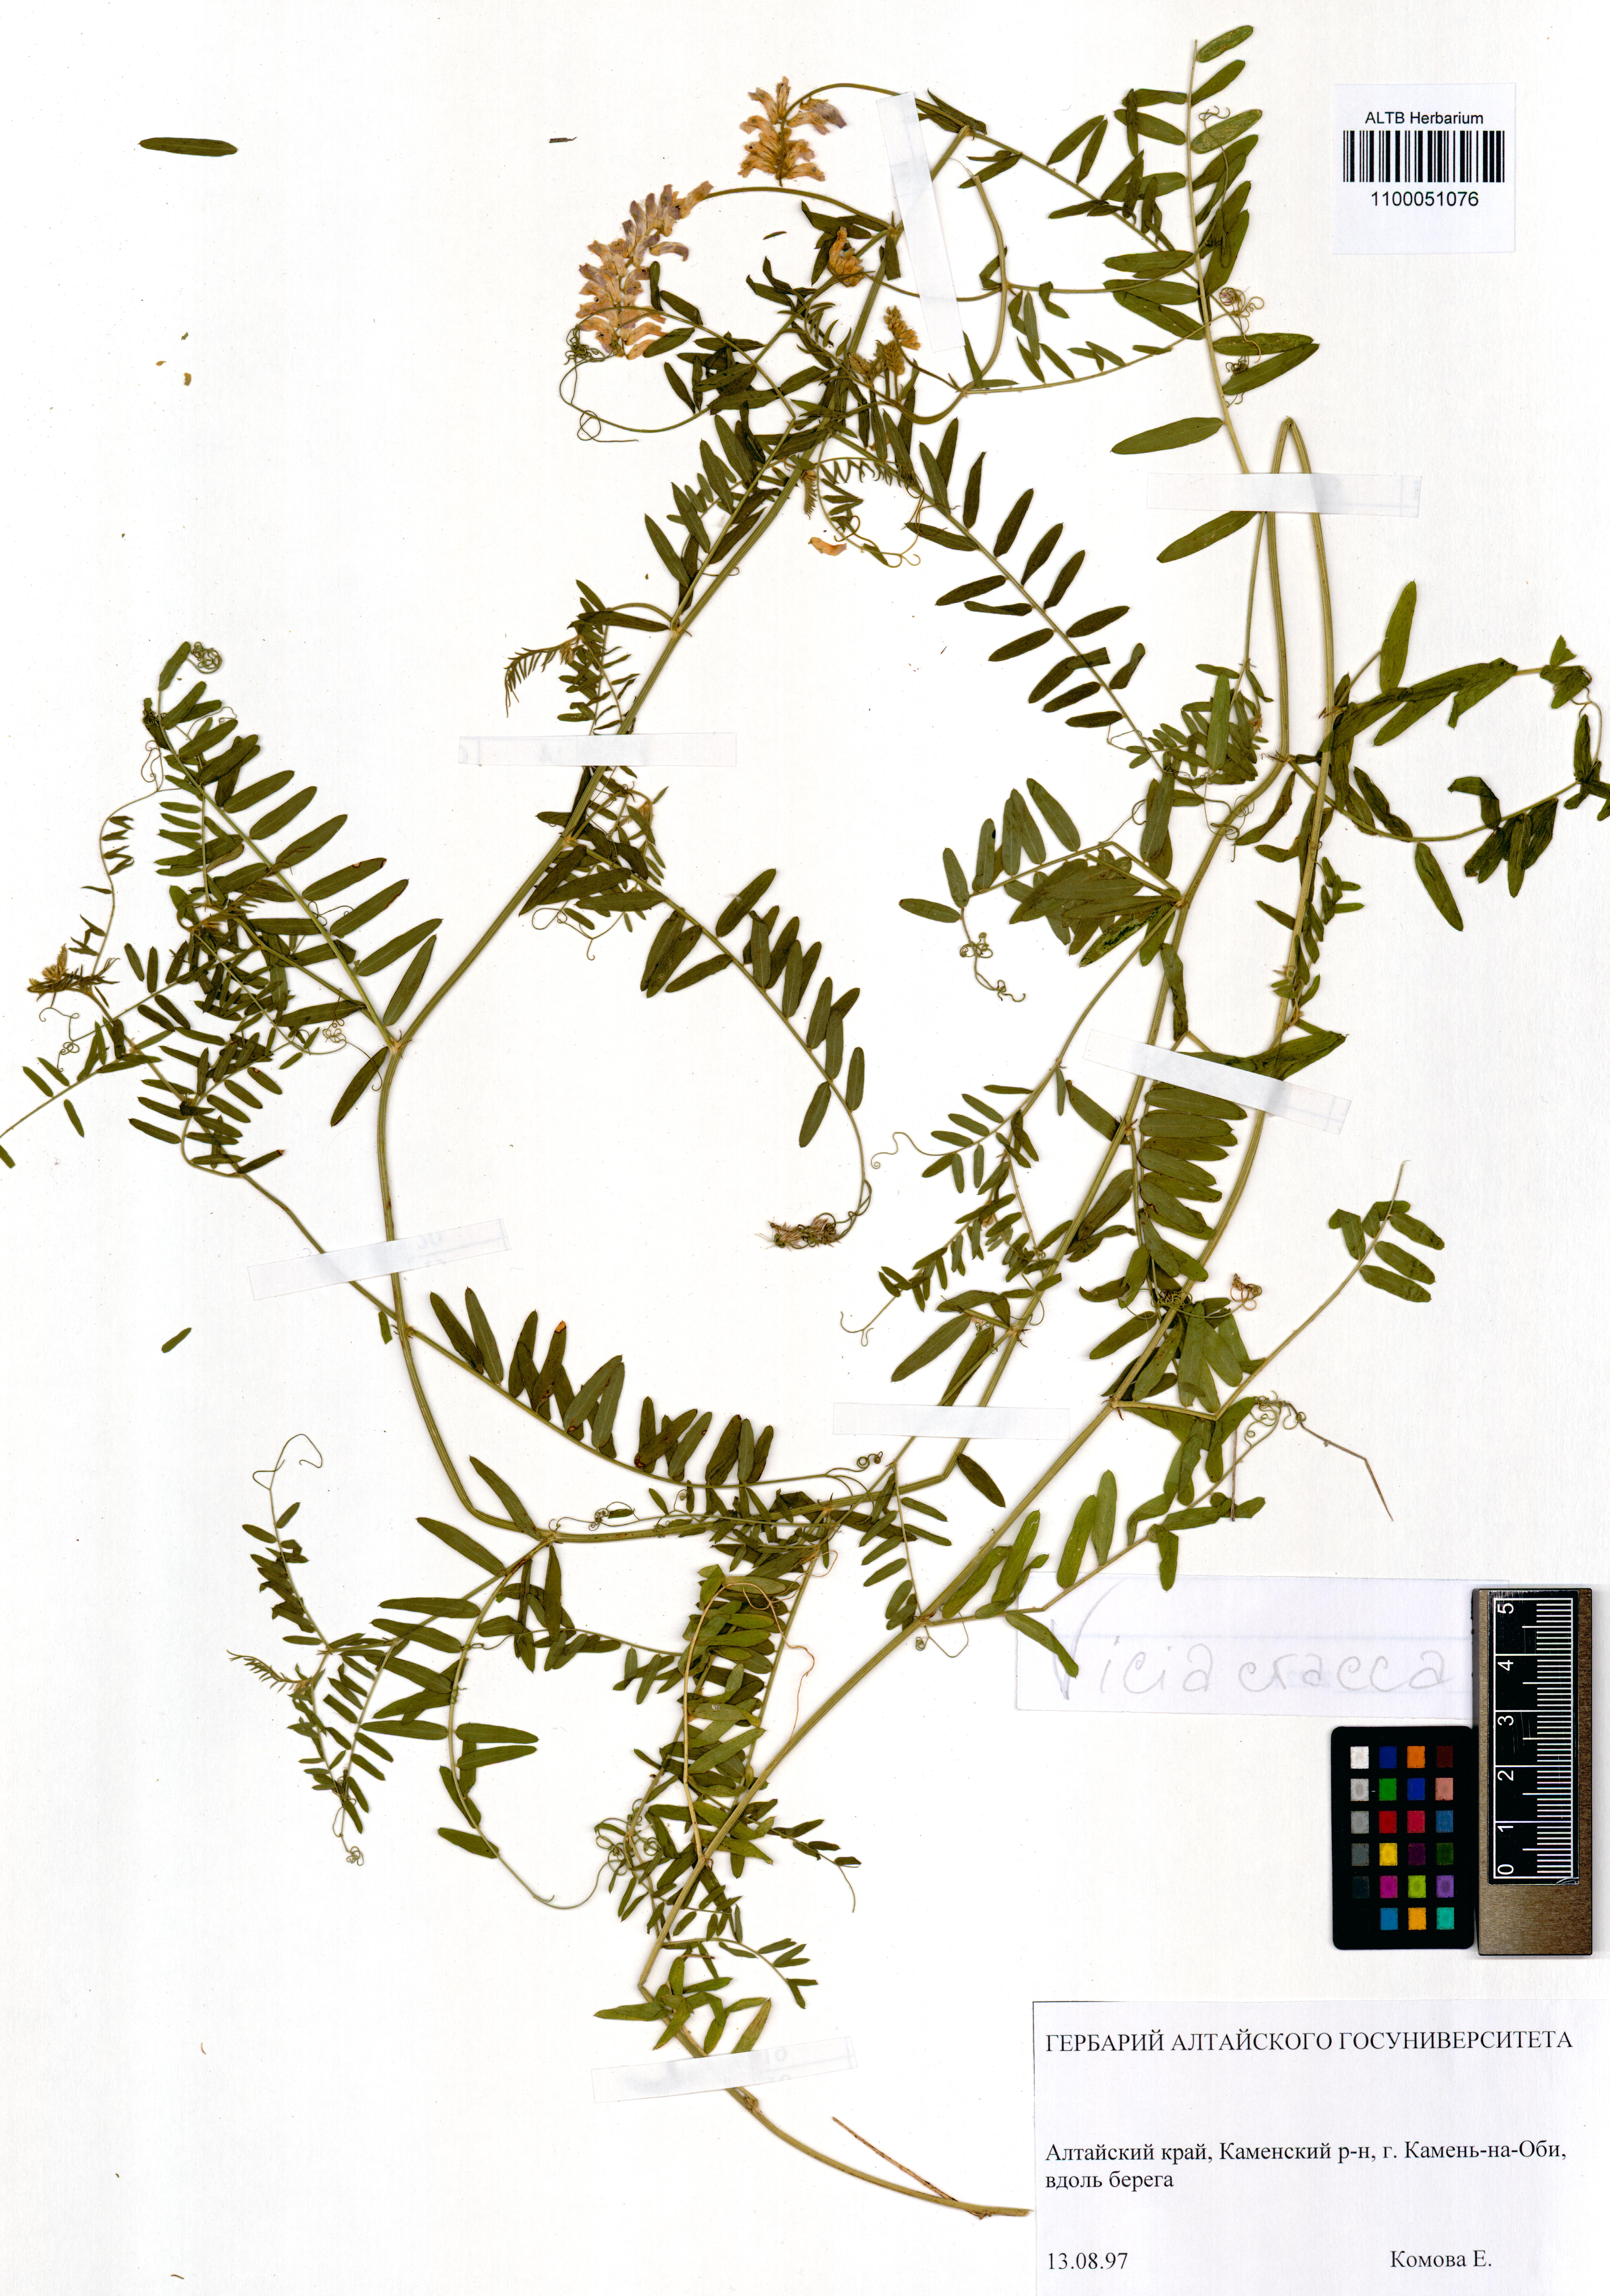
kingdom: Plantae
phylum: Tracheophyta
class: Magnoliopsida
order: Fabales
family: Fabaceae
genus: Vicia
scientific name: Vicia cracca
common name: Bird vetch
